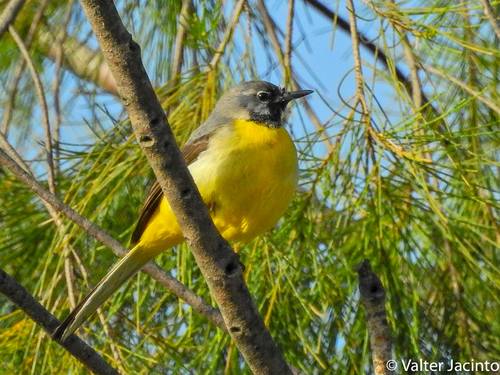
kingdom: Animalia
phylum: Chordata
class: Aves
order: Passeriformes
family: Motacillidae
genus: Motacilla
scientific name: Motacilla cinerea
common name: Grey wagtail
